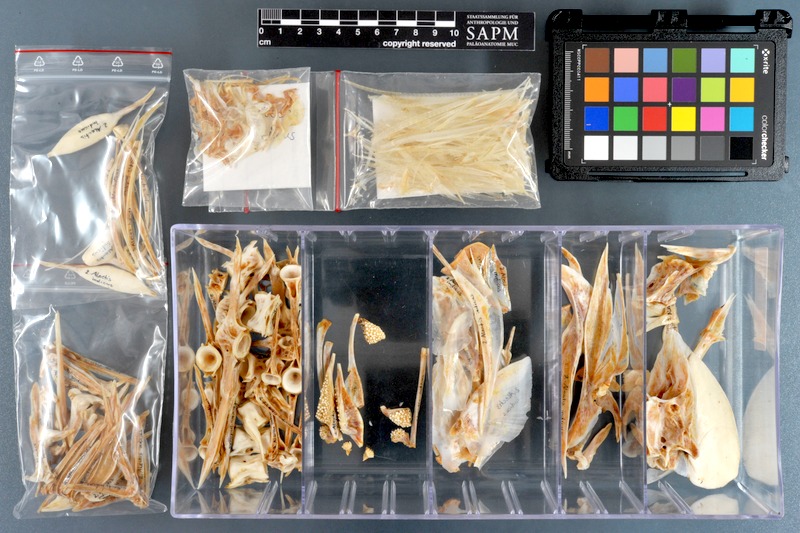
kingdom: Animalia
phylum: Chordata
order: Perciformes
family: Carangidae
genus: Alectis
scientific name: Alectis indica
